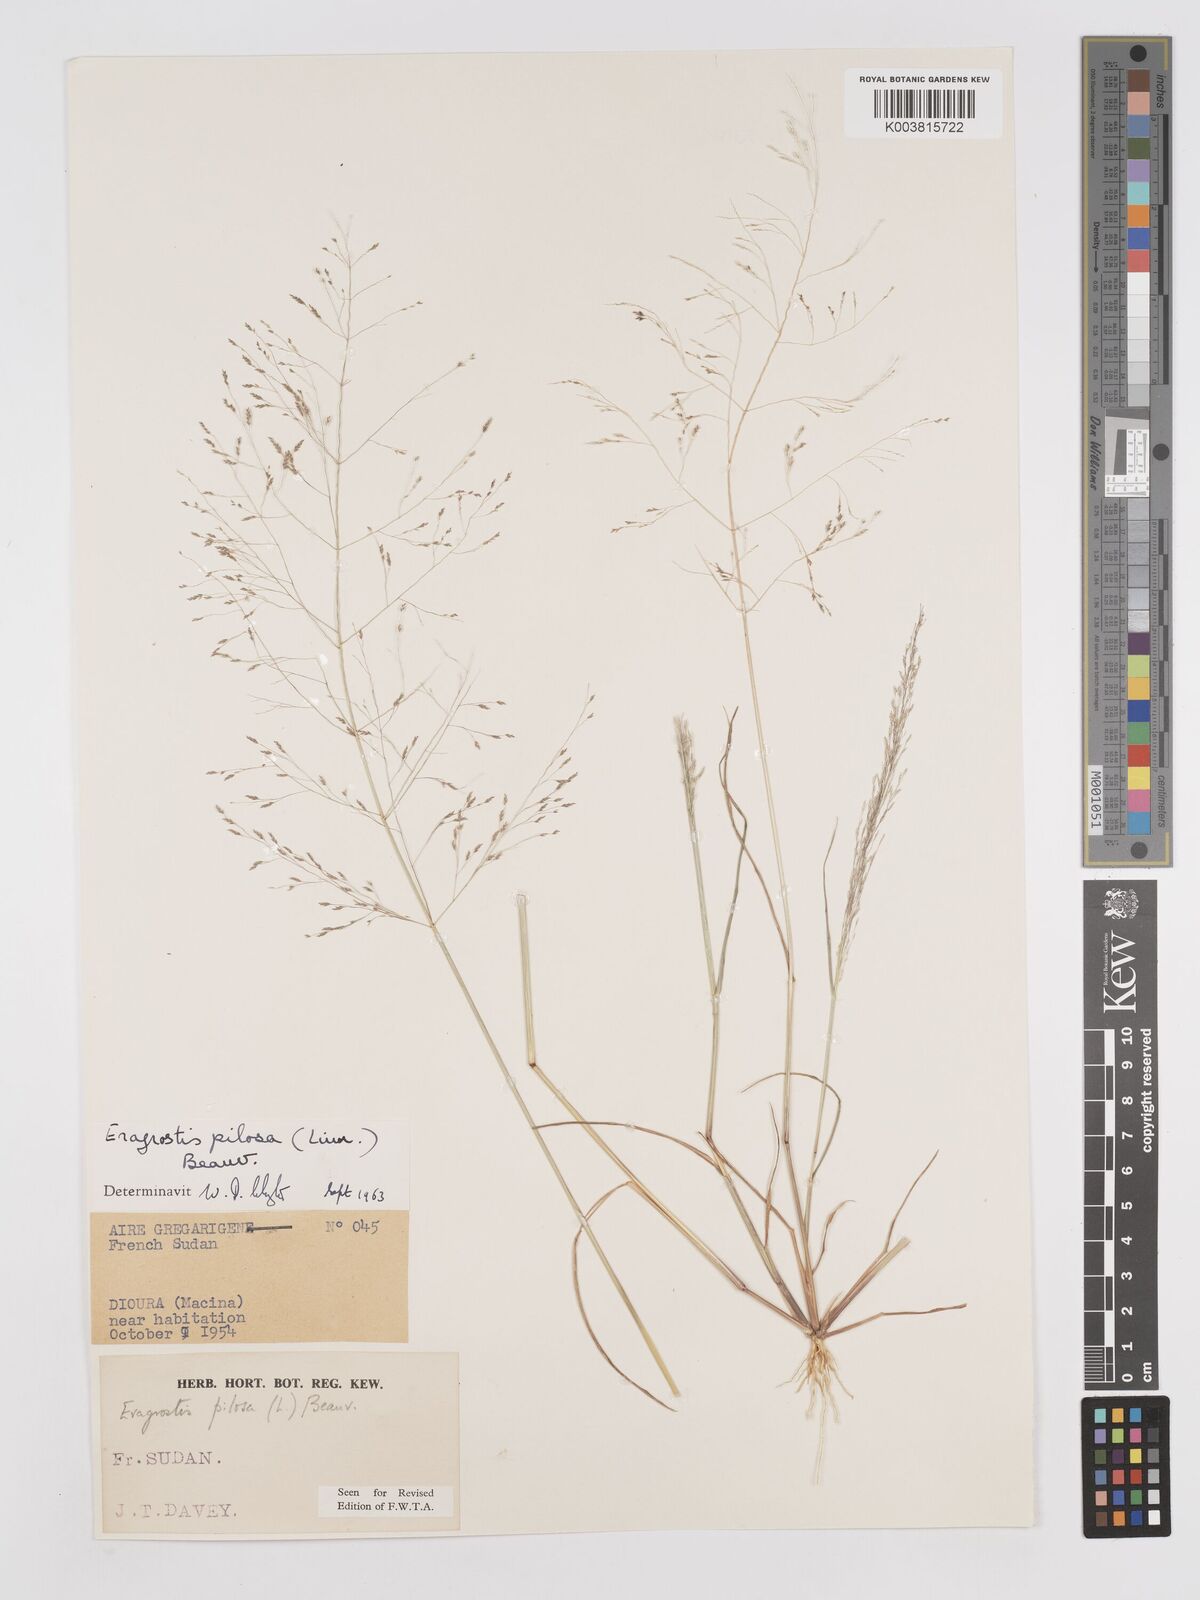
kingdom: Plantae
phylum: Tracheophyta
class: Liliopsida
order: Poales
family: Poaceae
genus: Eragrostis
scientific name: Eragrostis pilosa
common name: Indian lovegrass
